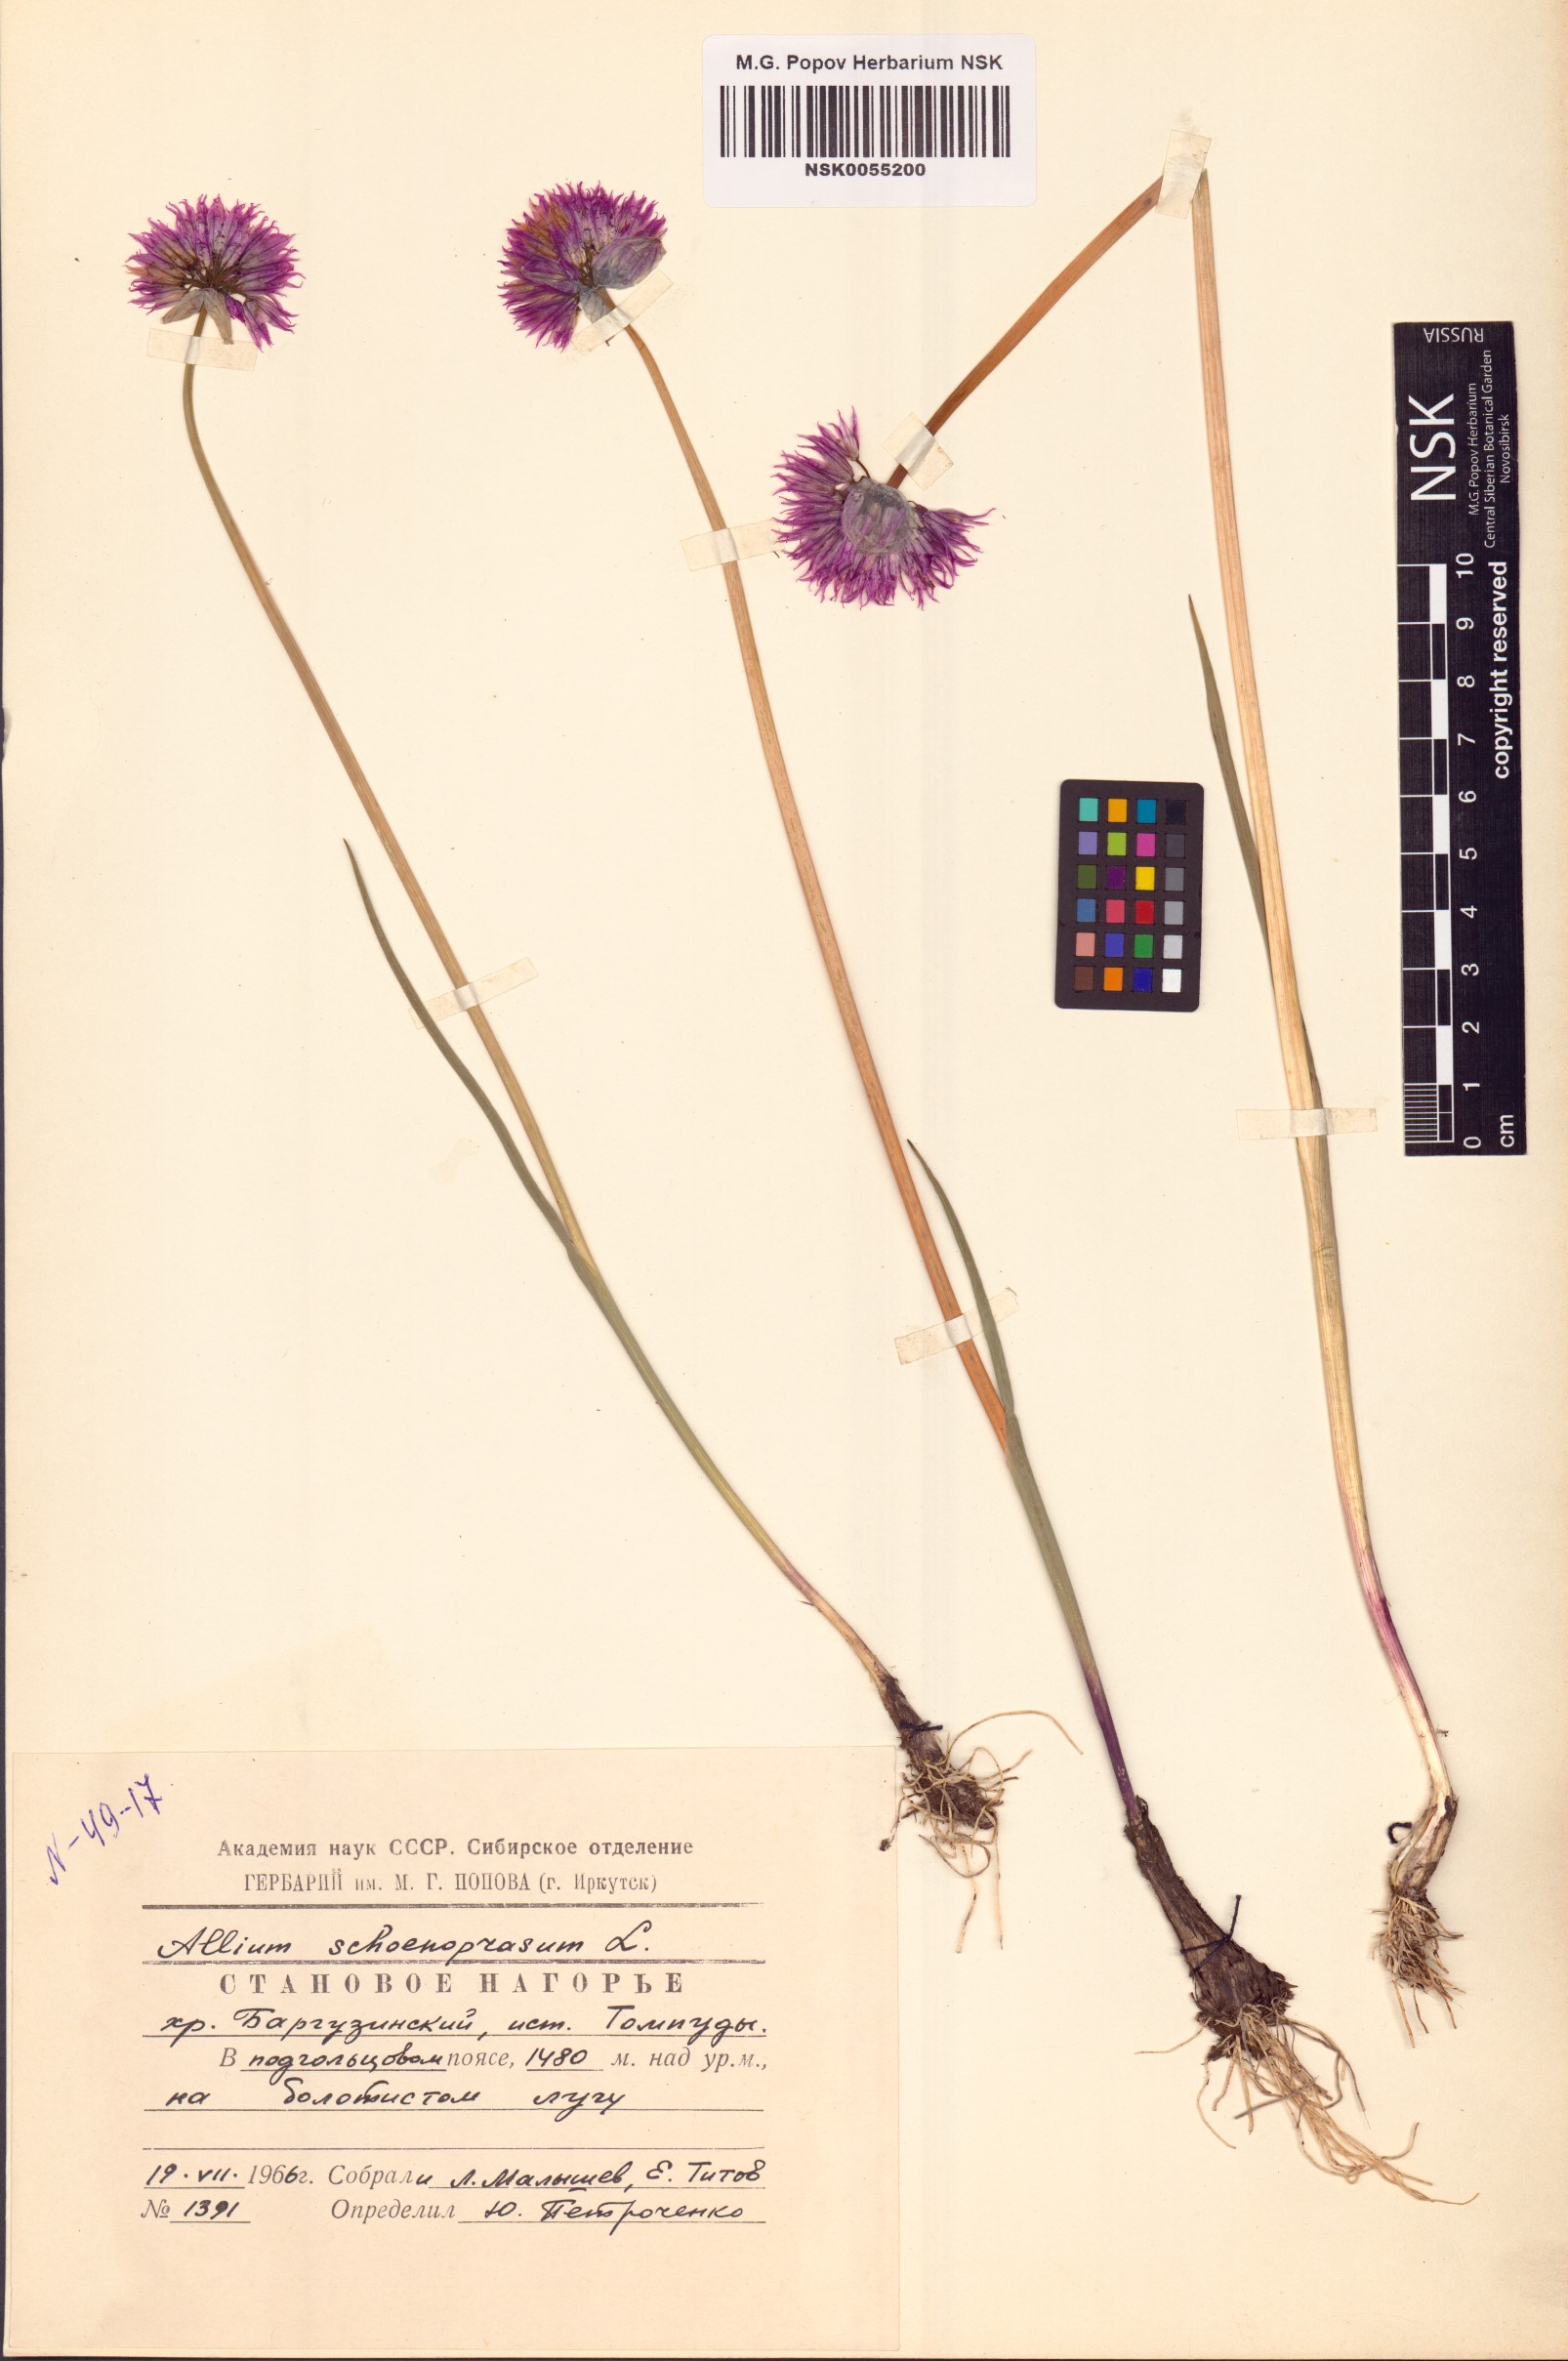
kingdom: Plantae
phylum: Tracheophyta
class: Liliopsida
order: Asparagales
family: Amaryllidaceae
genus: Allium
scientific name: Allium schoenoprasum
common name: Chives
